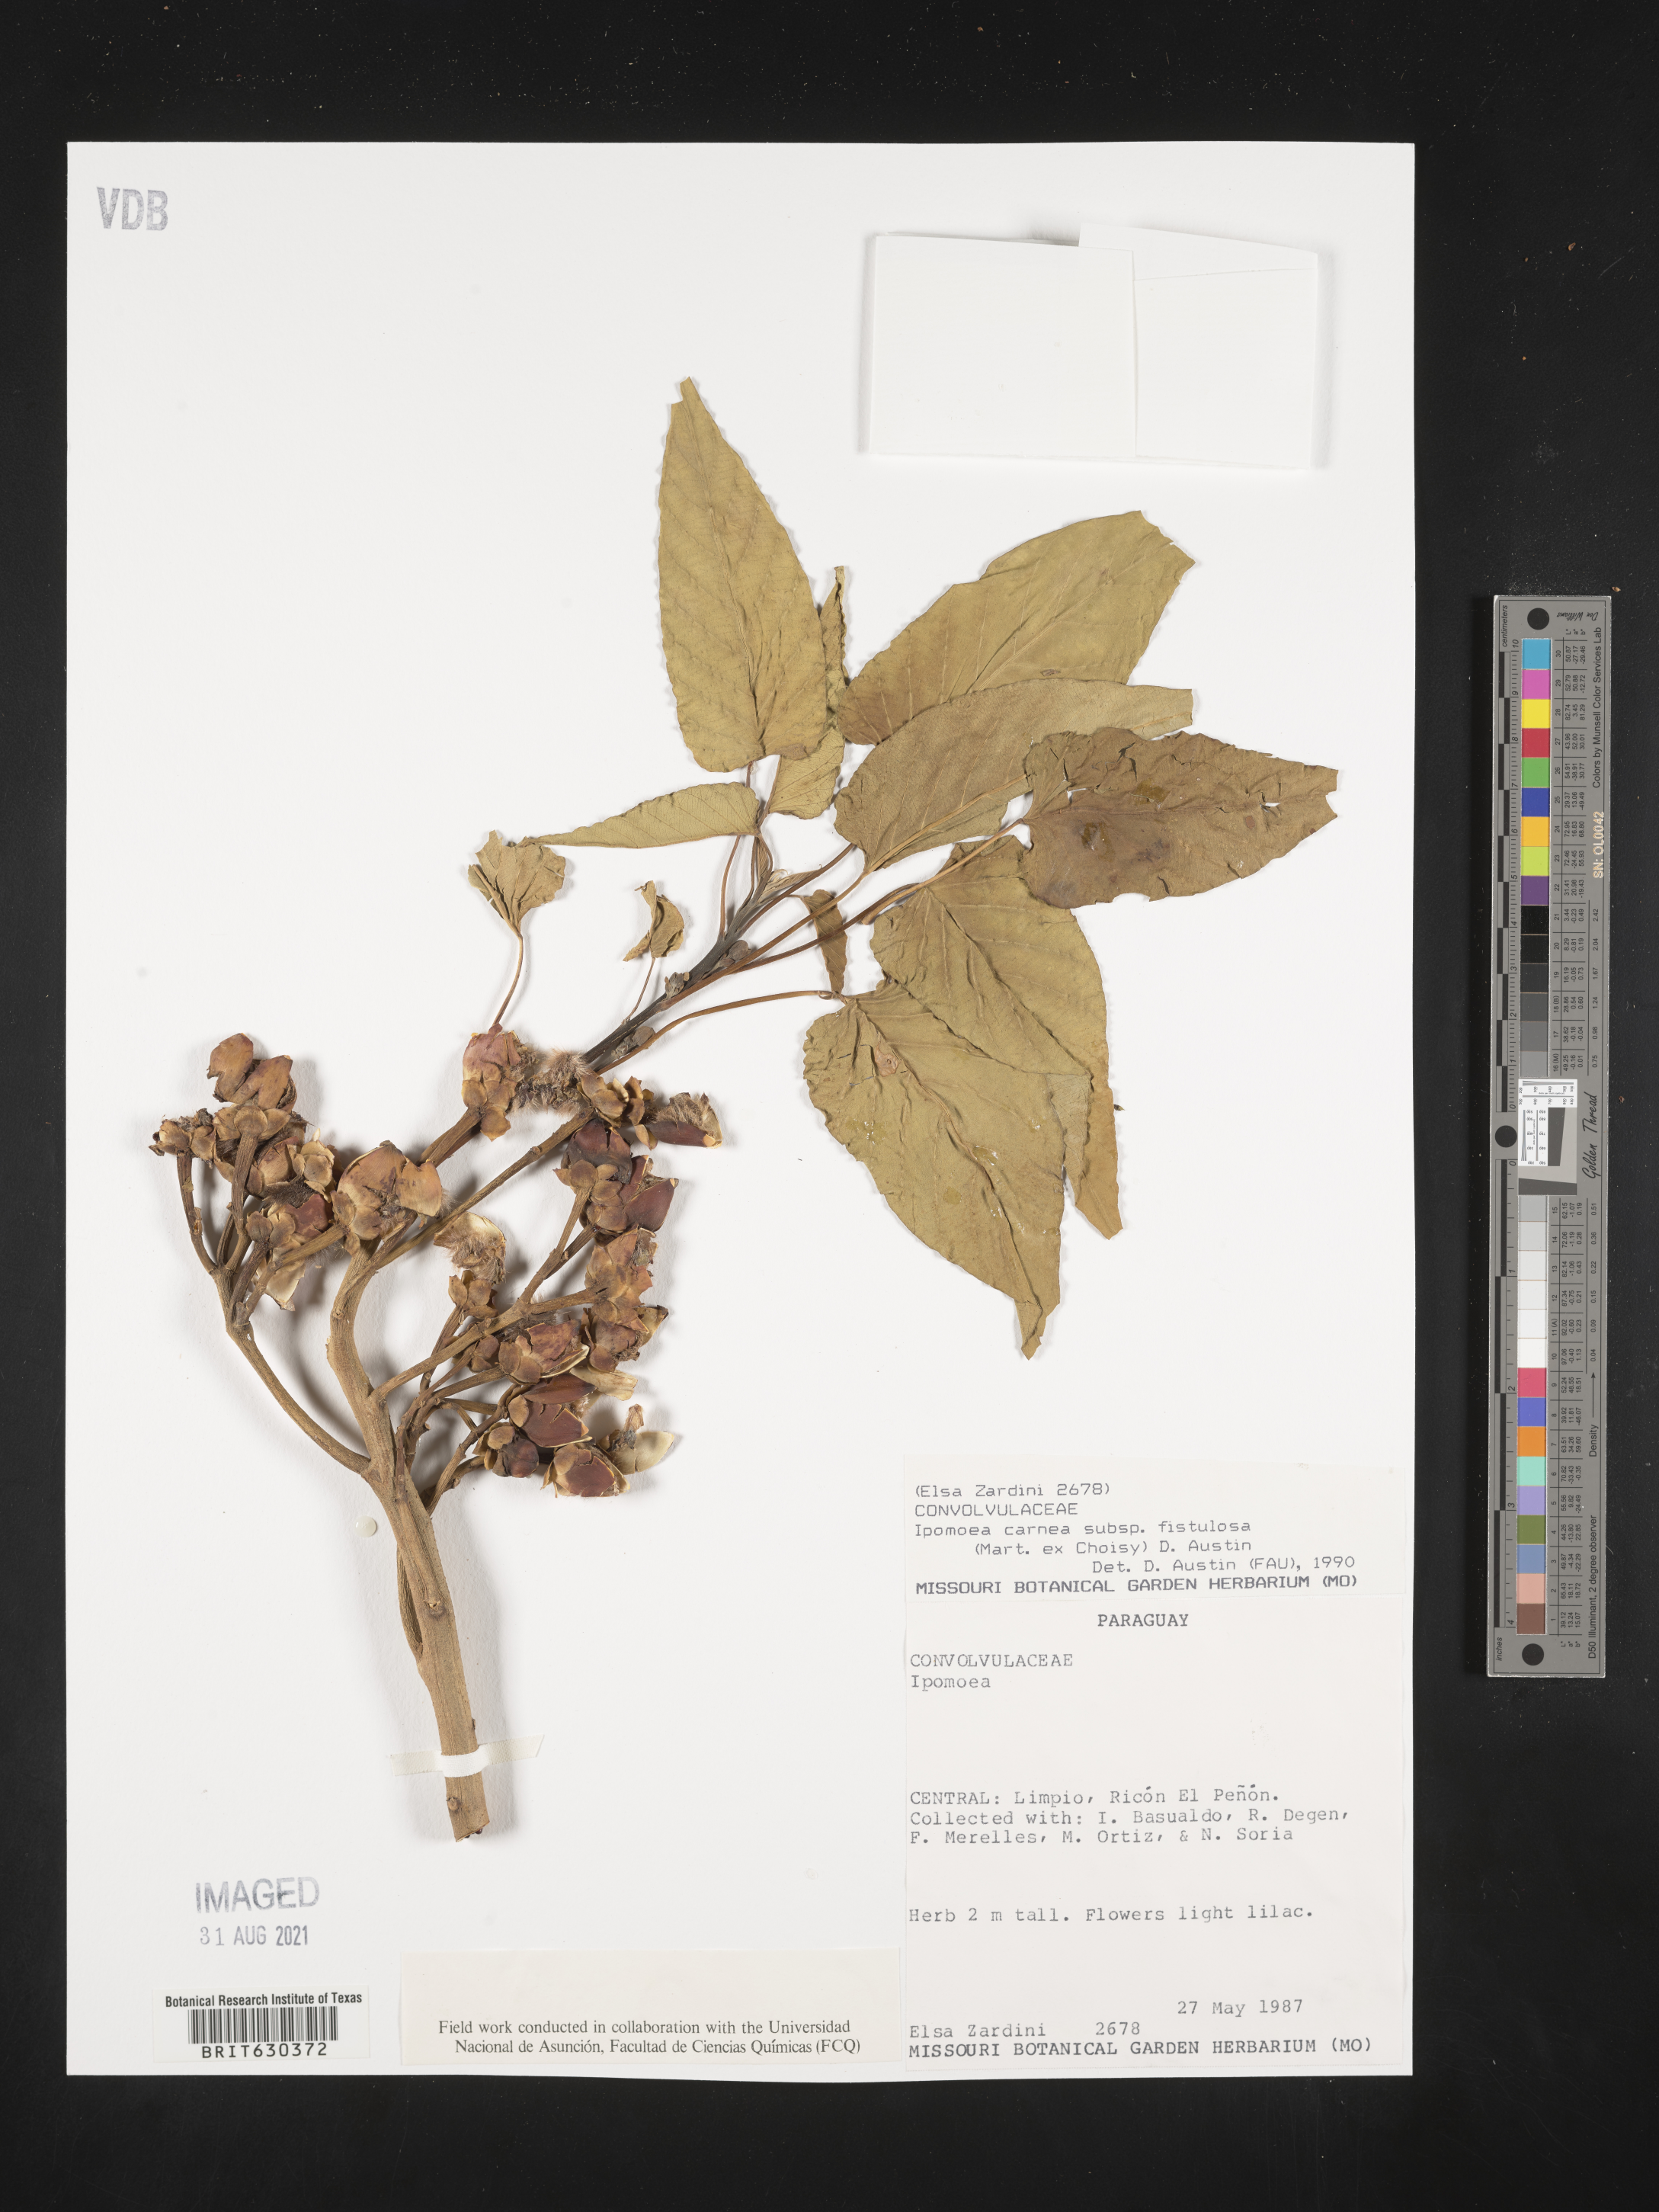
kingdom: Plantae
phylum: Tracheophyta
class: Magnoliopsida
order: Solanales
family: Convolvulaceae
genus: Ipomoea
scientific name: Ipomoea carnea
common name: Morning-glory
